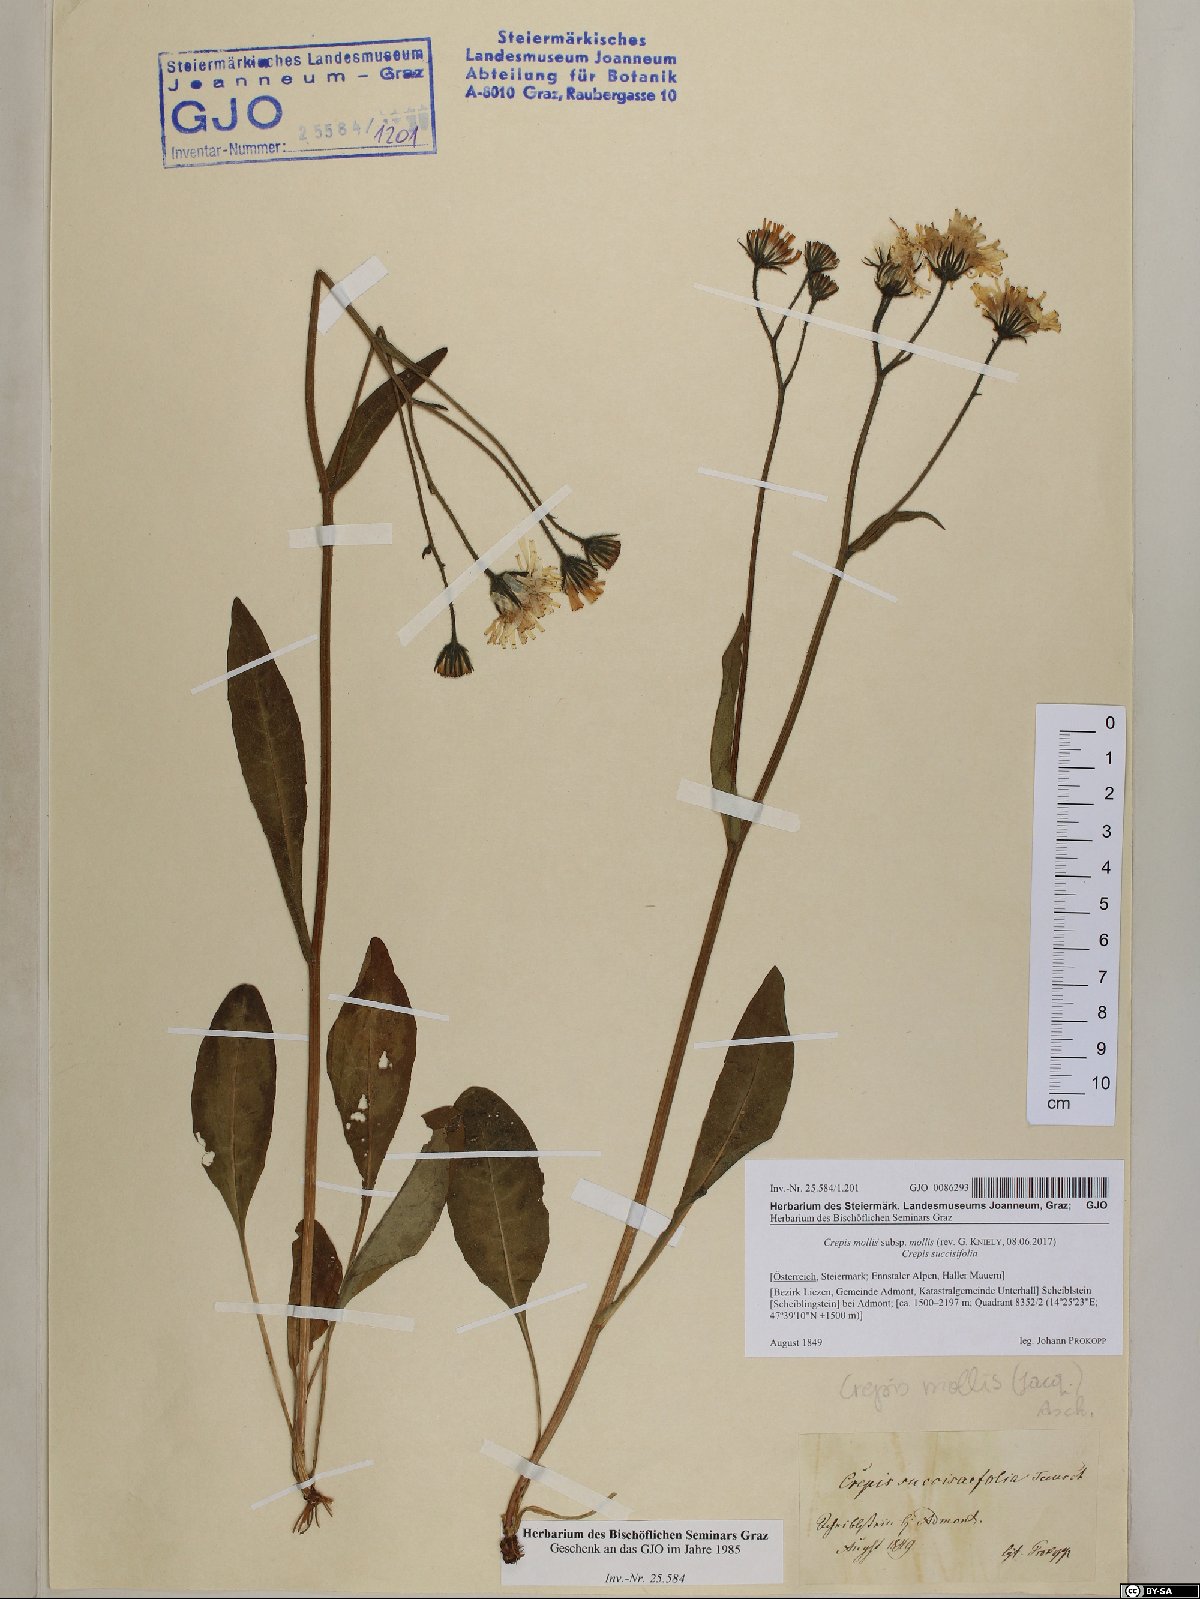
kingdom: Plantae
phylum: Tracheophyta
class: Magnoliopsida
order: Asterales
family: Asteraceae
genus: Crepis
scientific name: Crepis mollis
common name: Northern hawk's-beard
